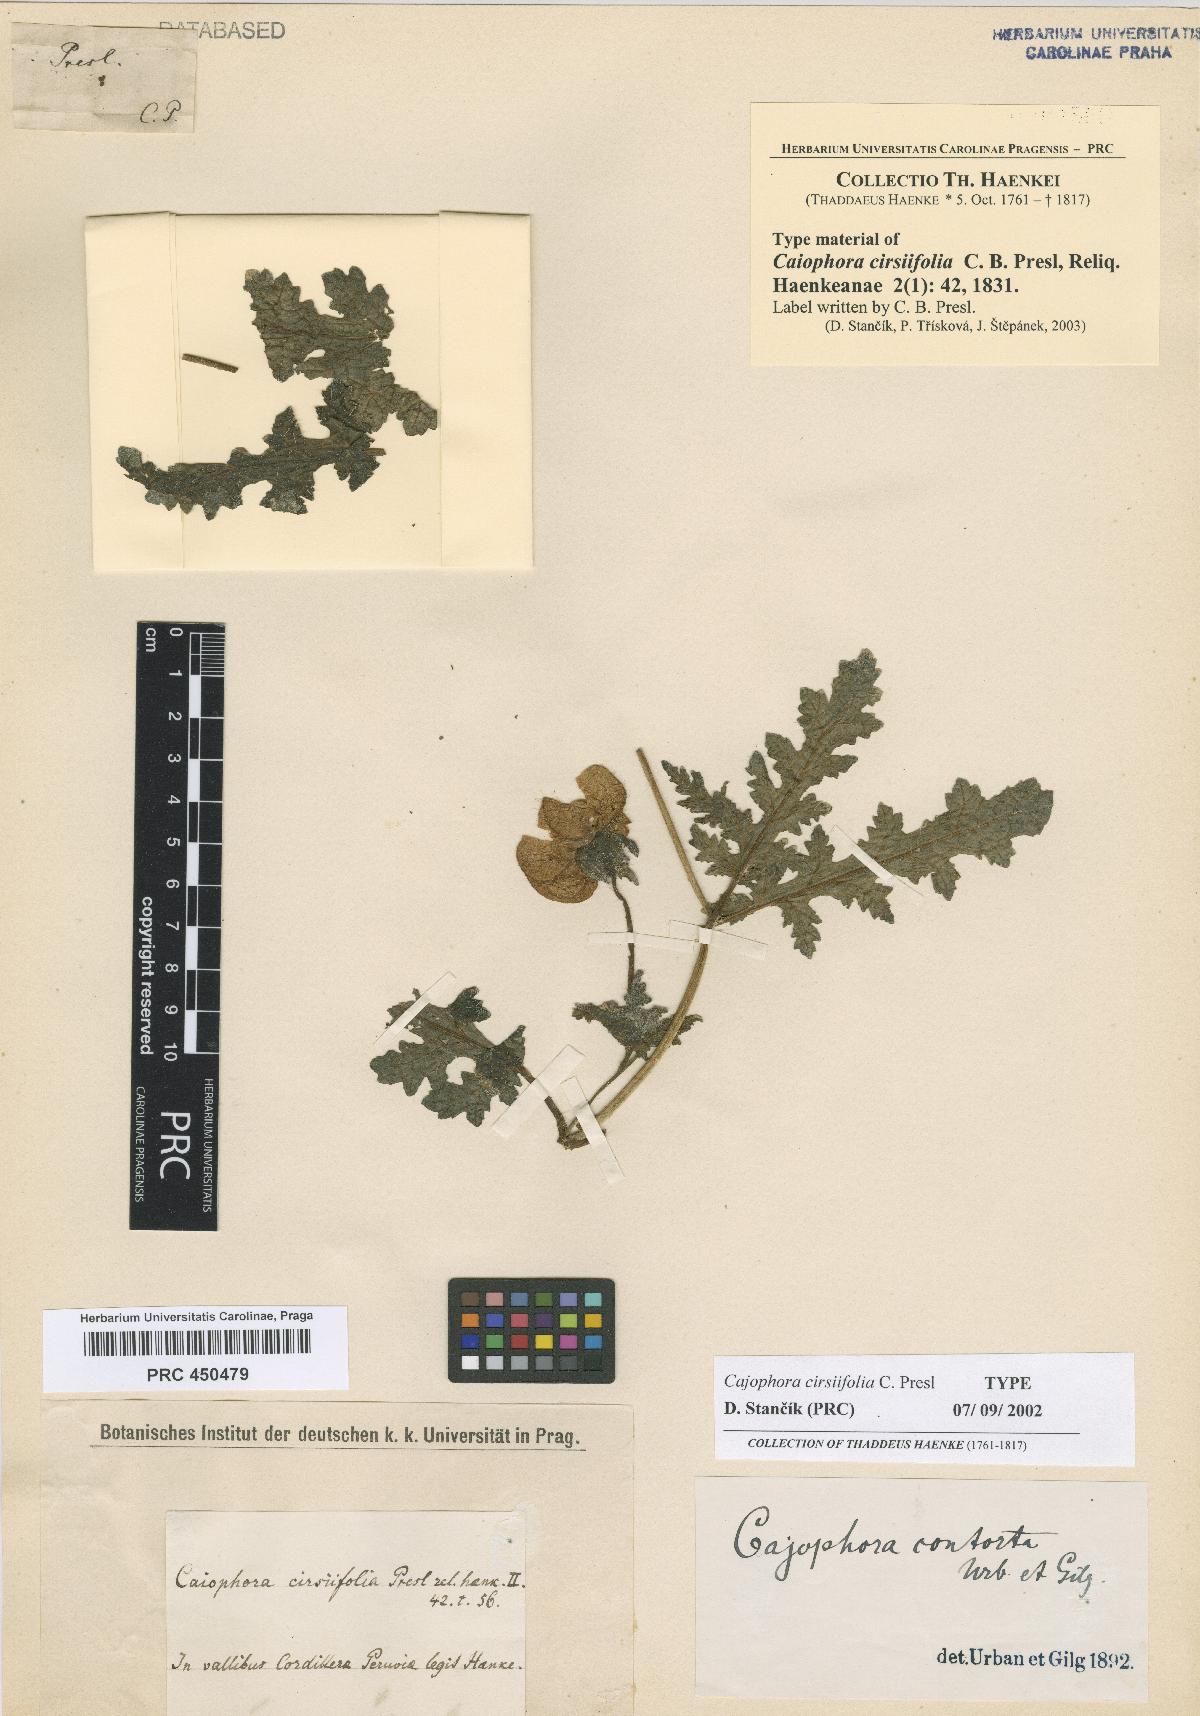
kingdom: Plantae
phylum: Tracheophyta
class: Magnoliopsida
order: Cornales
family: Loasaceae
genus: Caiophora
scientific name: Caiophora cirsiifolia
